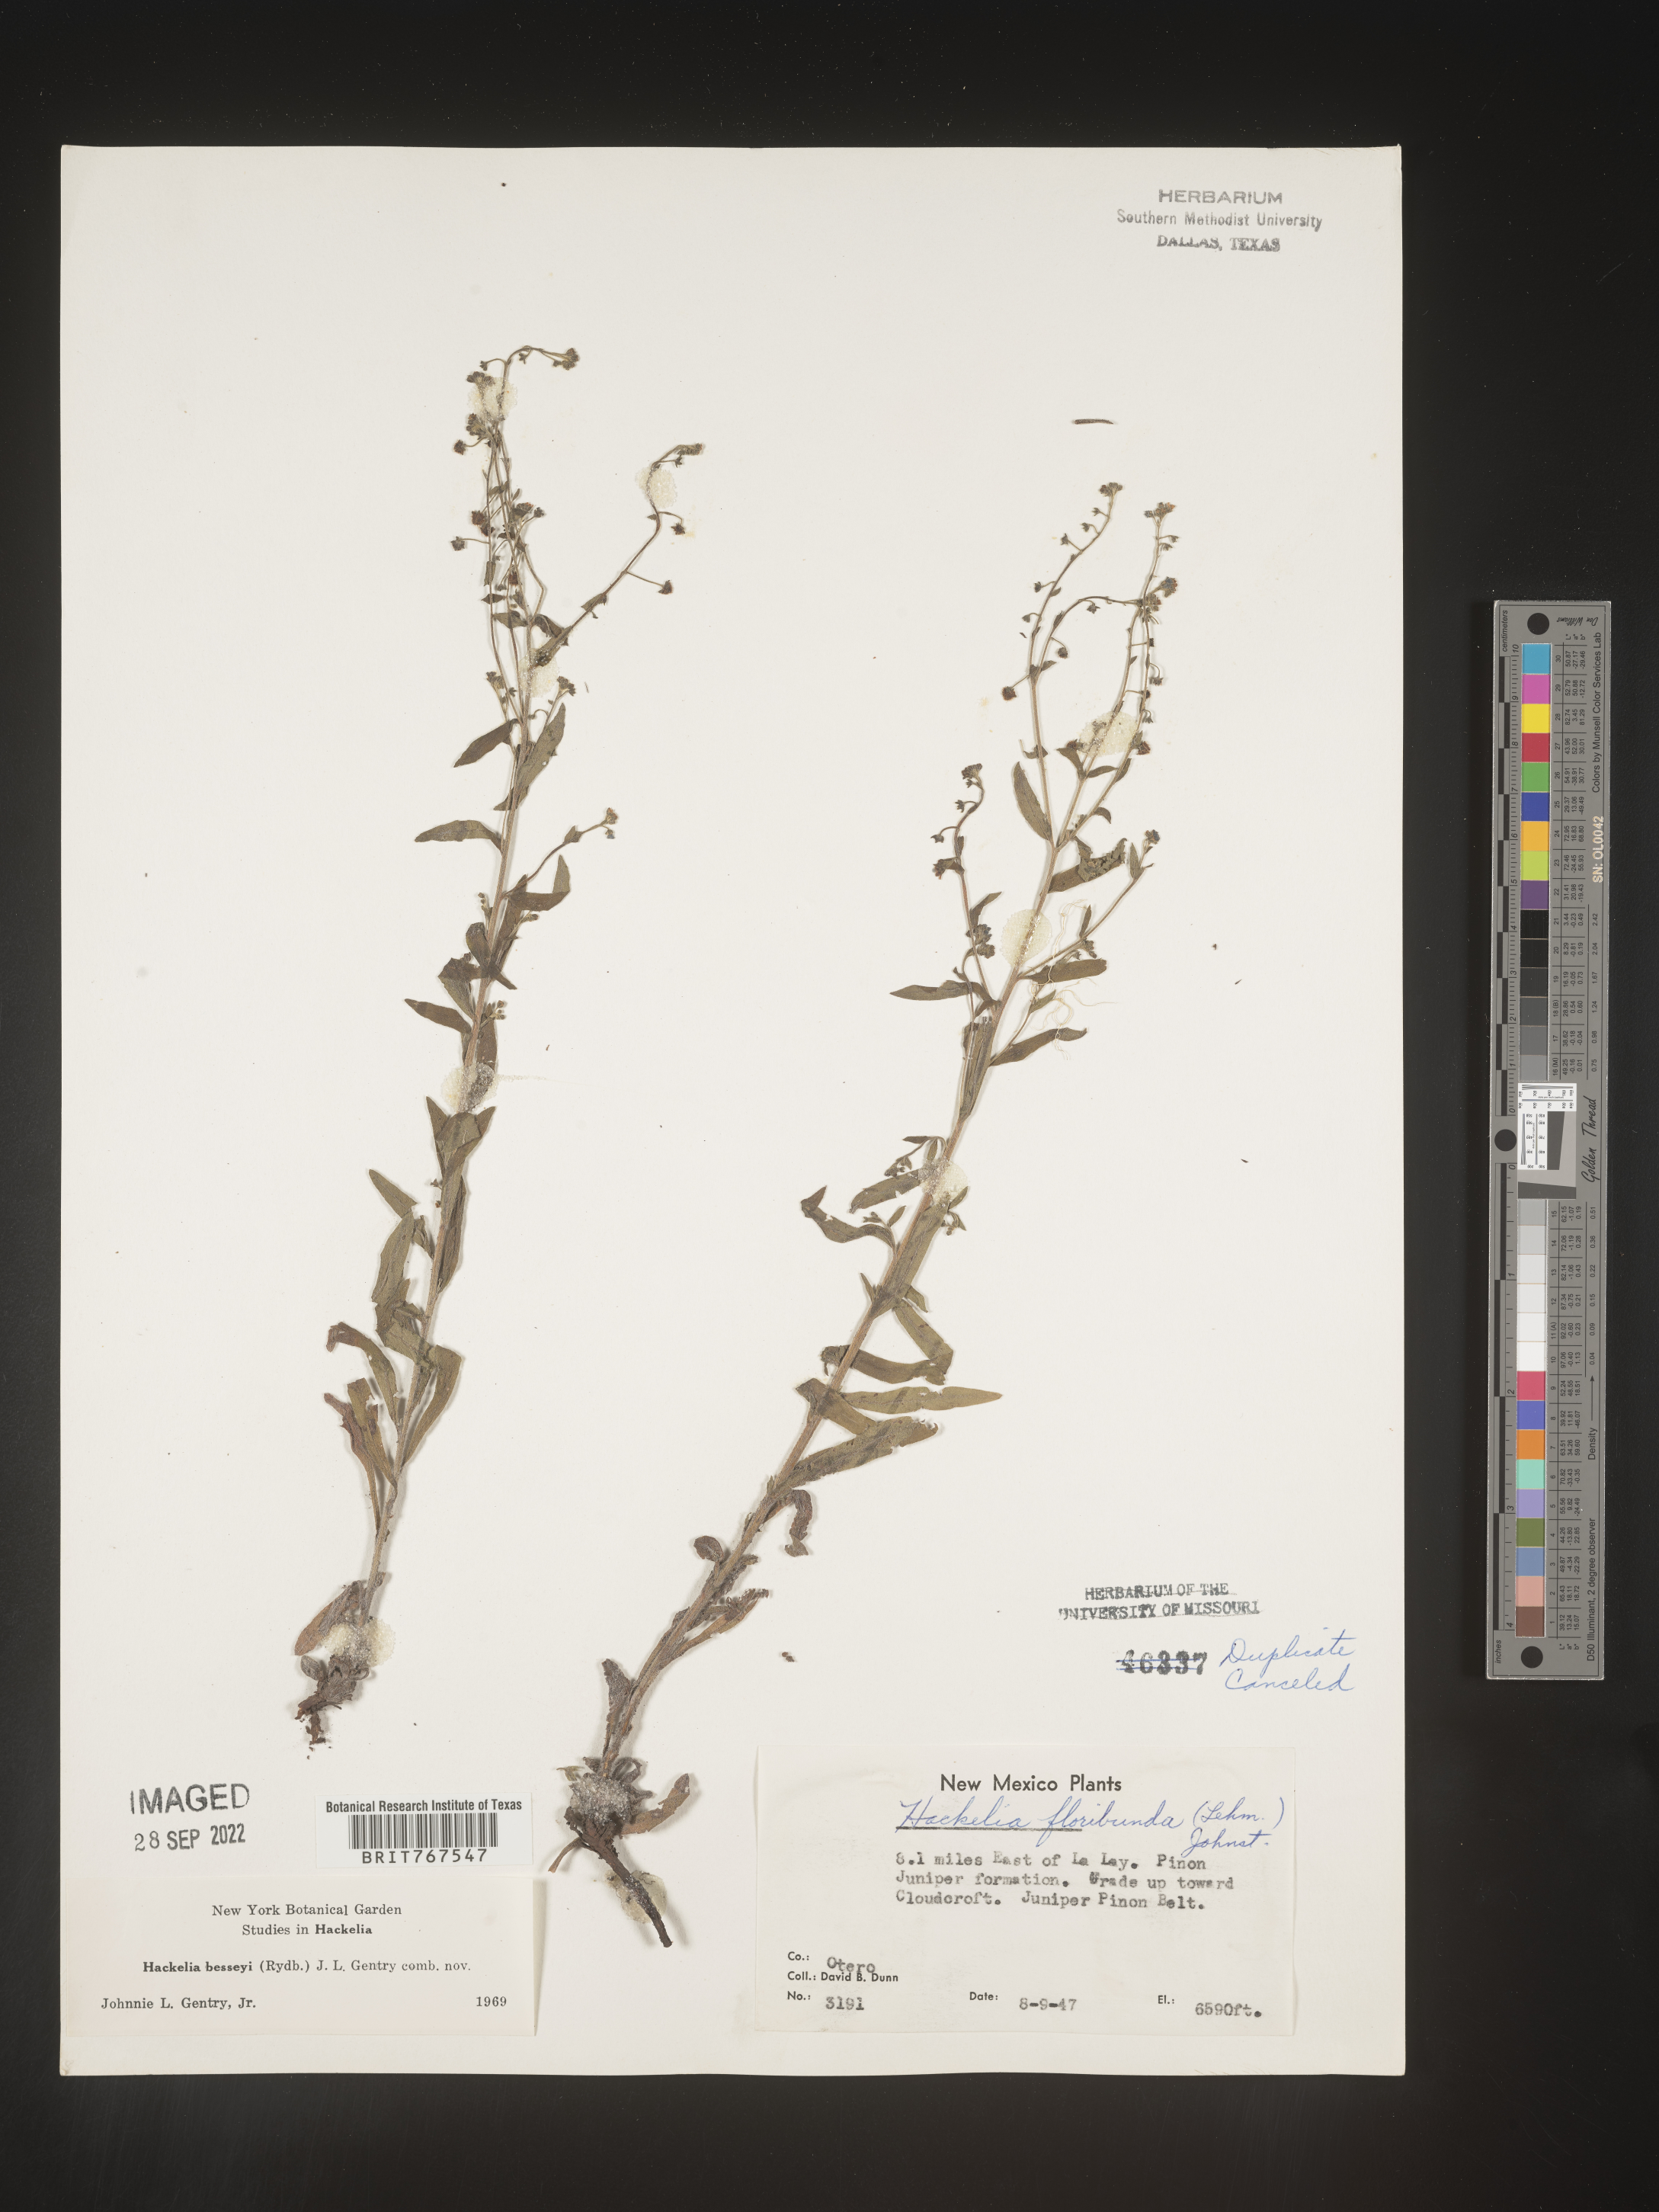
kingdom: Plantae
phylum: Tracheophyta
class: Magnoliopsida
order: Boraginales
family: Boraginaceae
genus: Hackelia
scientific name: Hackelia
